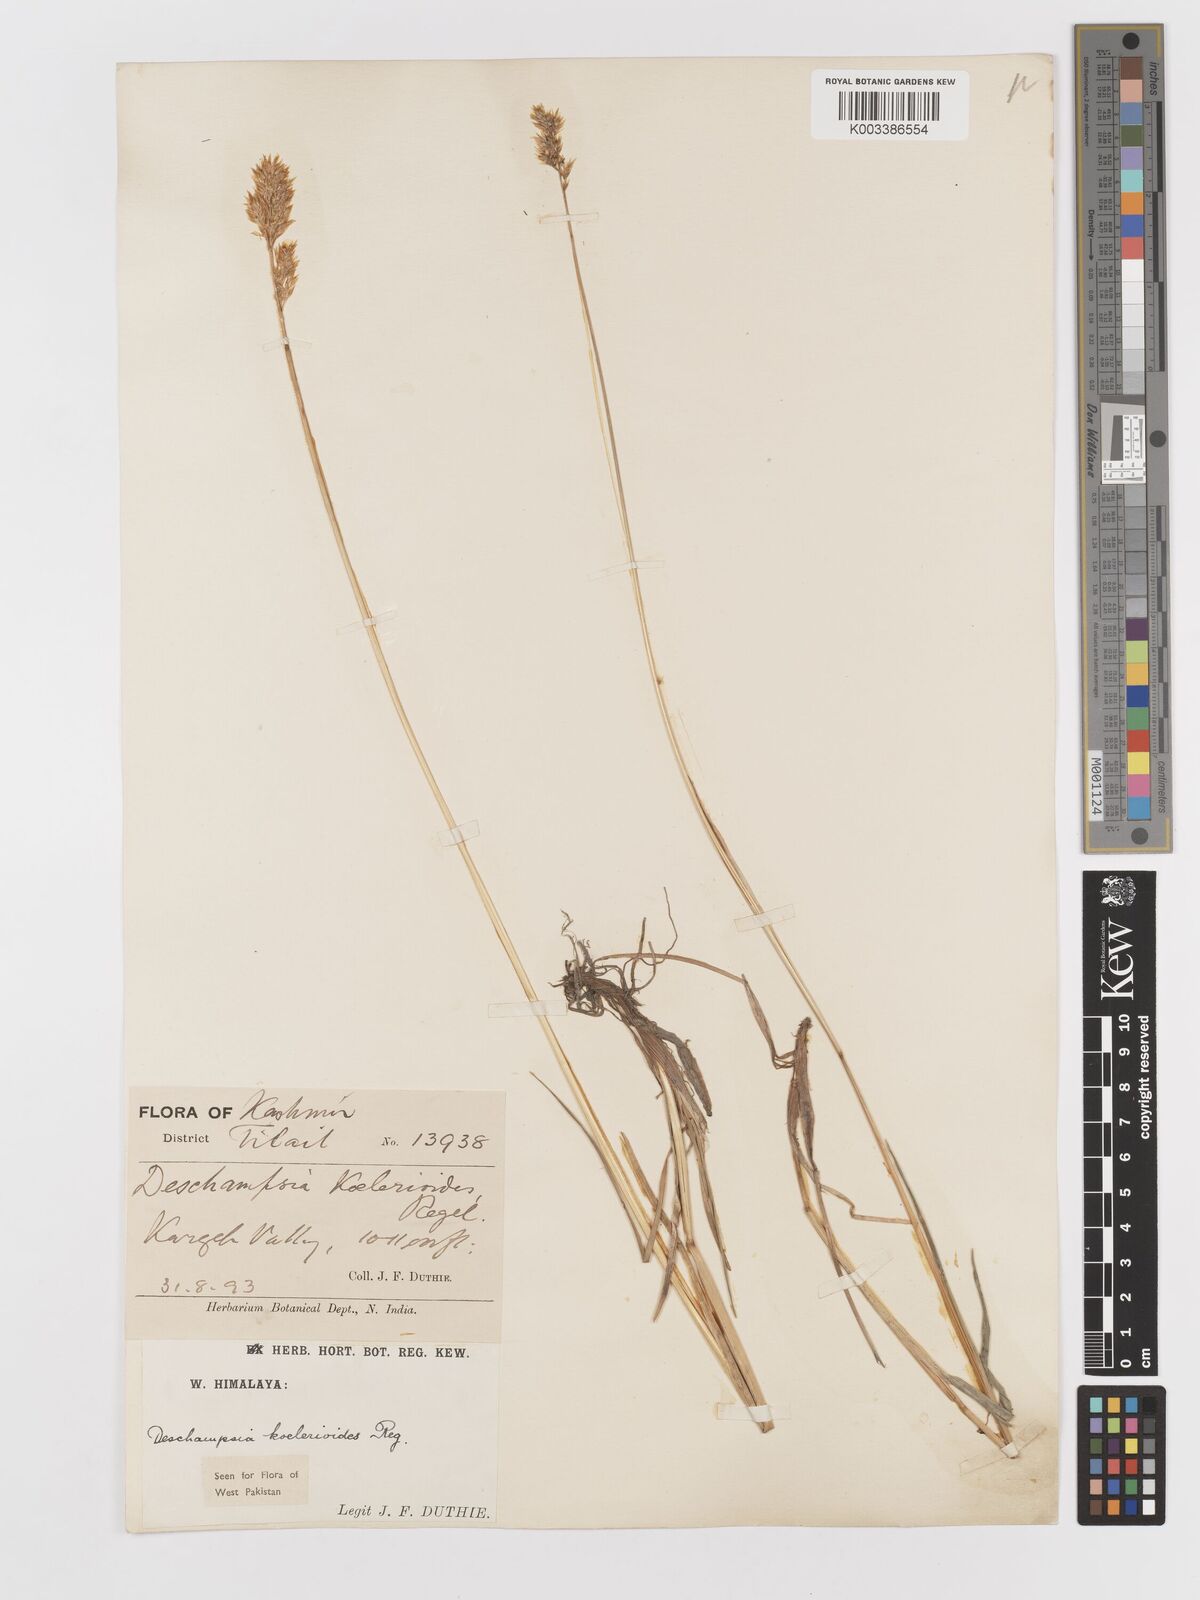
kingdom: Plantae
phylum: Tracheophyta
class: Liliopsida
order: Poales
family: Poaceae
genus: Deschampsia
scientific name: Deschampsia koelerioides
